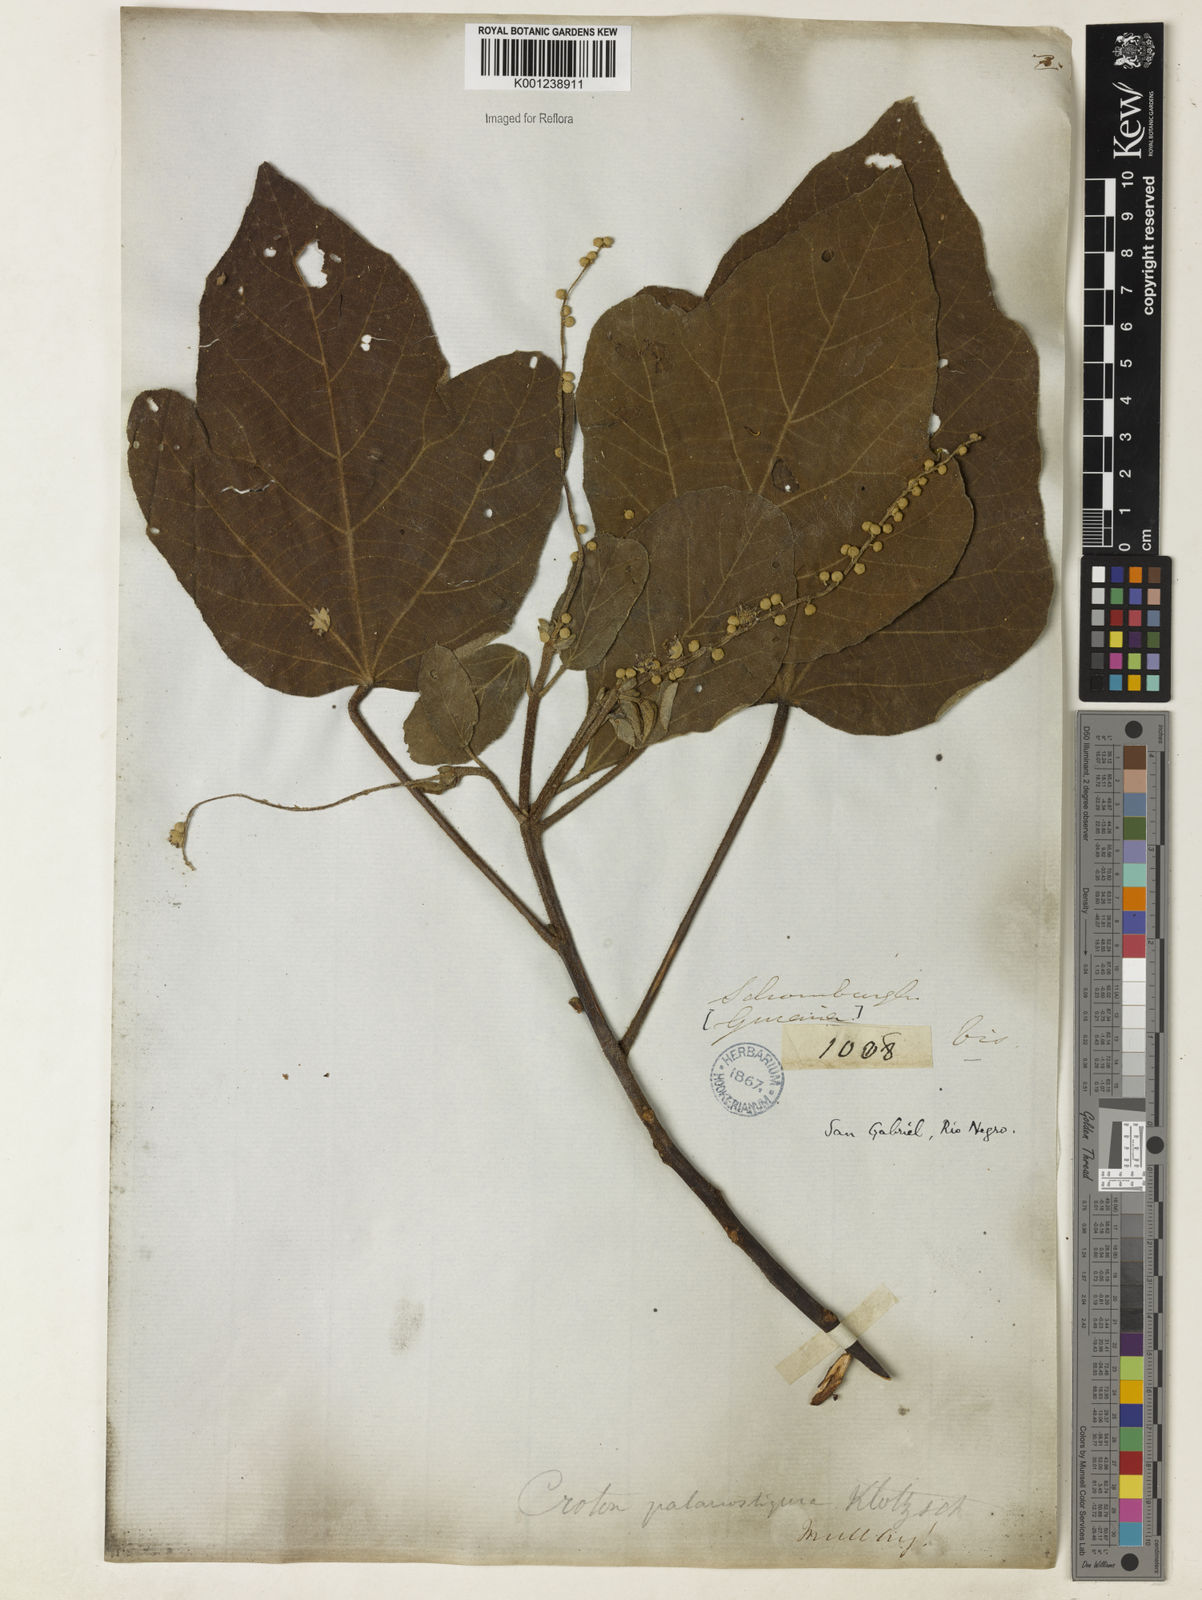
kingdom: Plantae
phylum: Tracheophyta
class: Magnoliopsida
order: Malpighiales
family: Euphorbiaceae
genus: Croton
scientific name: Croton palanostigma
